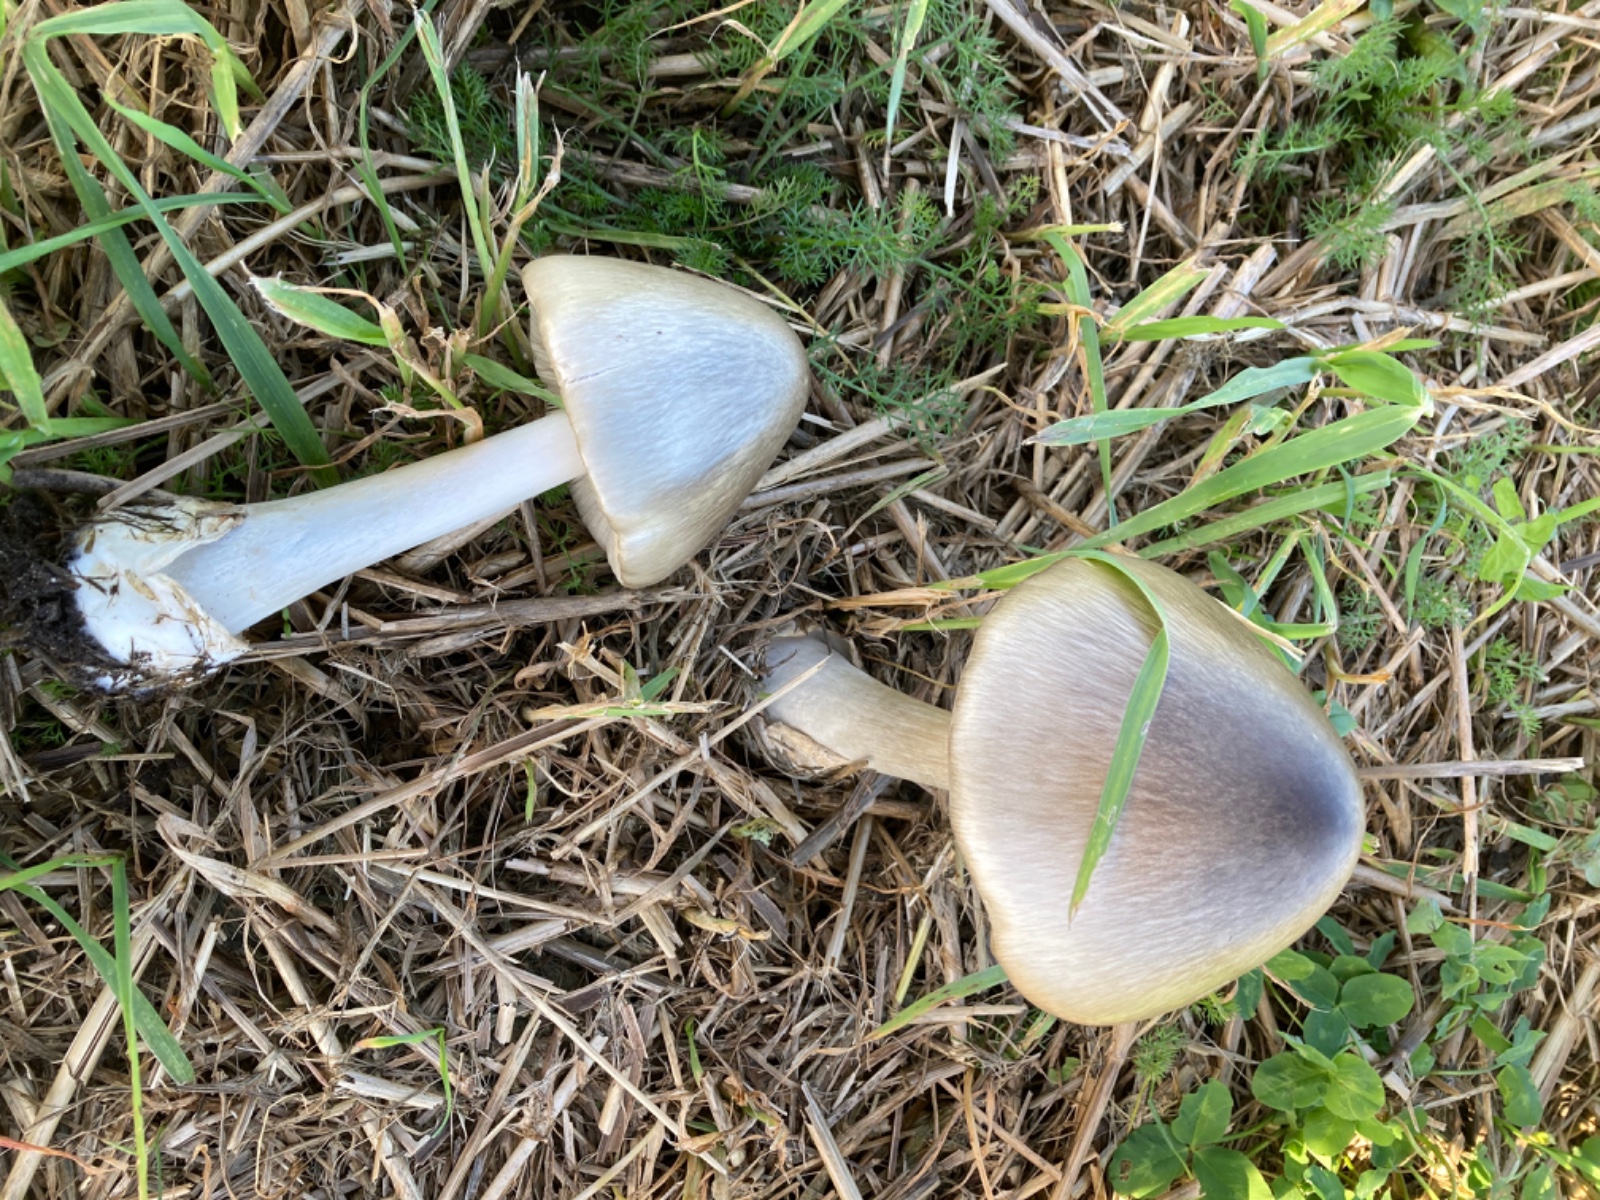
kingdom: Fungi
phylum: Basidiomycota
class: Agaricomycetes
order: Agaricales
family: Pluteaceae
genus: Volvopluteus
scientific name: Volvopluteus gloiocephalus
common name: høj posesvamp
